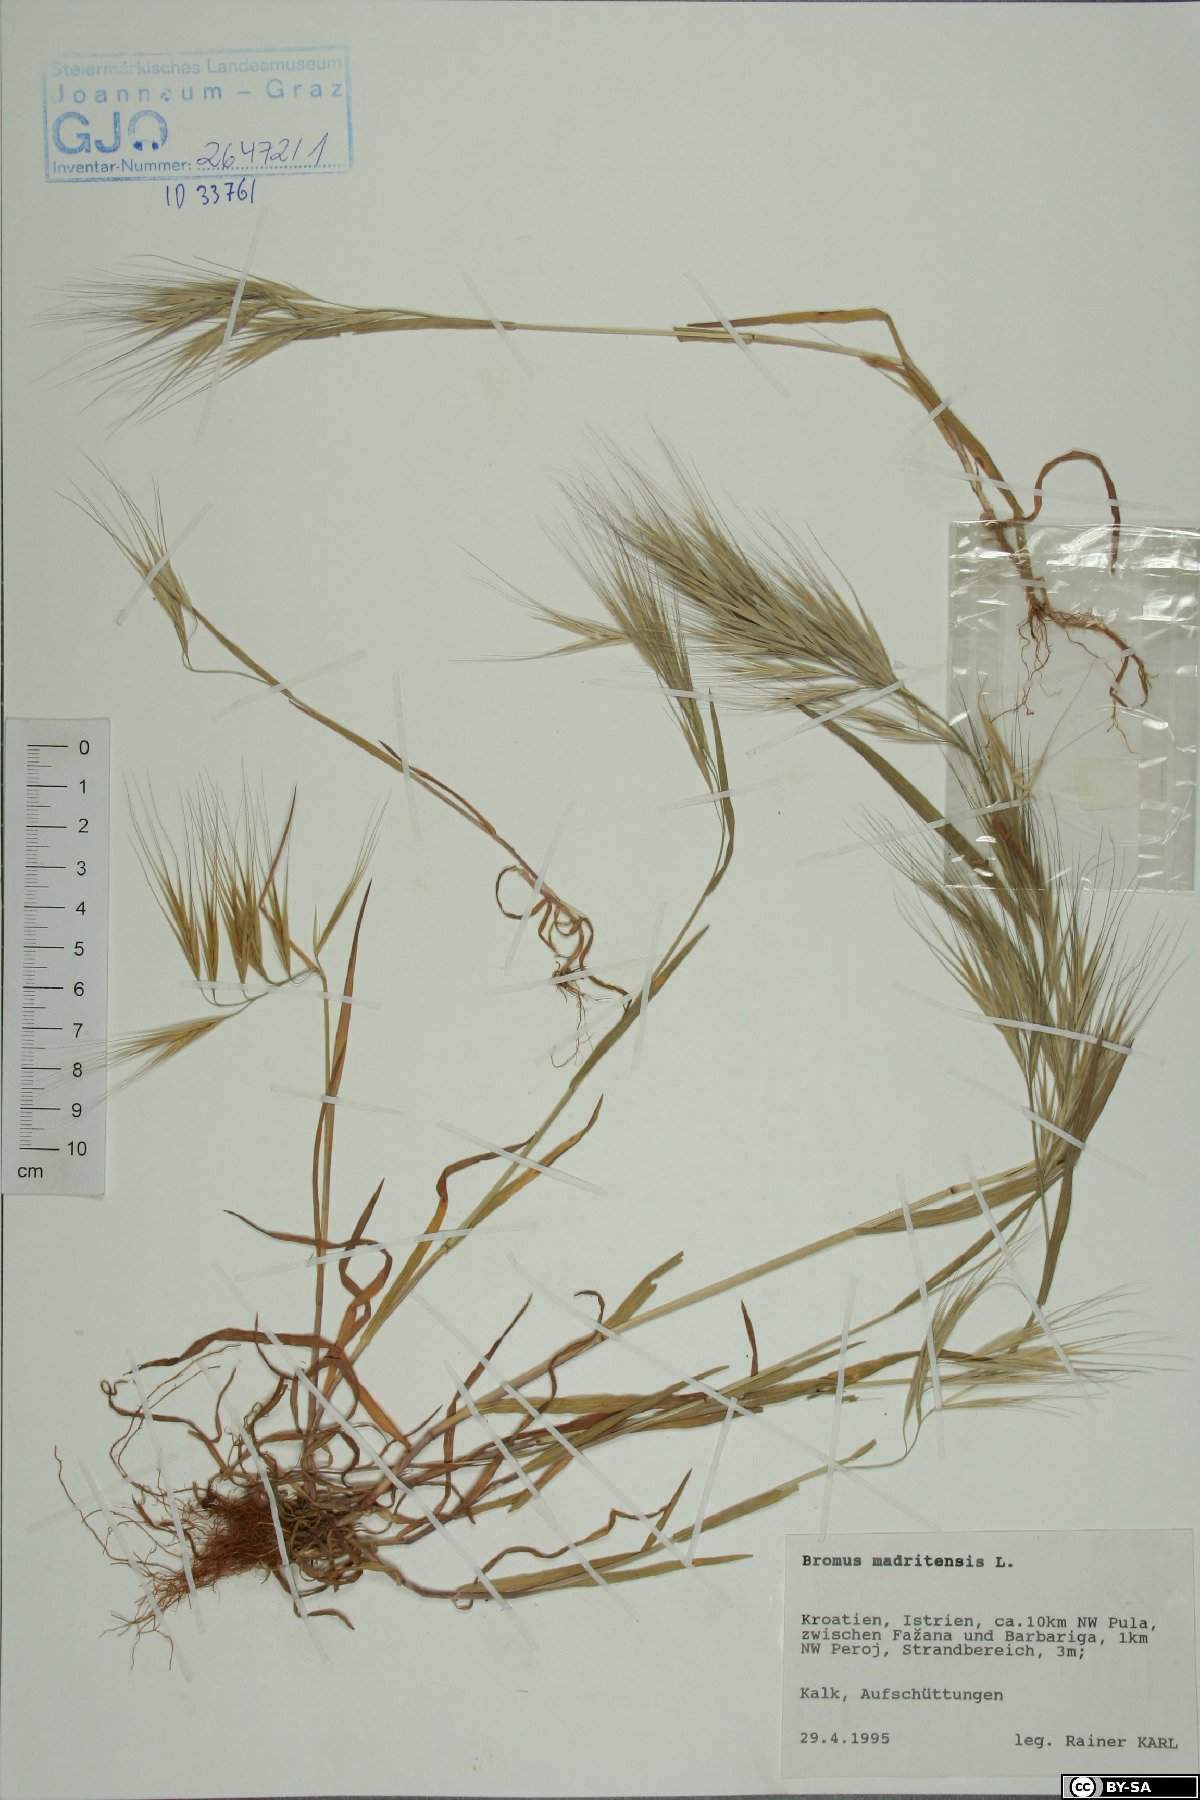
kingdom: Plantae
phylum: Tracheophyta
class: Liliopsida
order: Poales
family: Poaceae
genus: Bromus
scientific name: Bromus madritensis
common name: Compact brome
